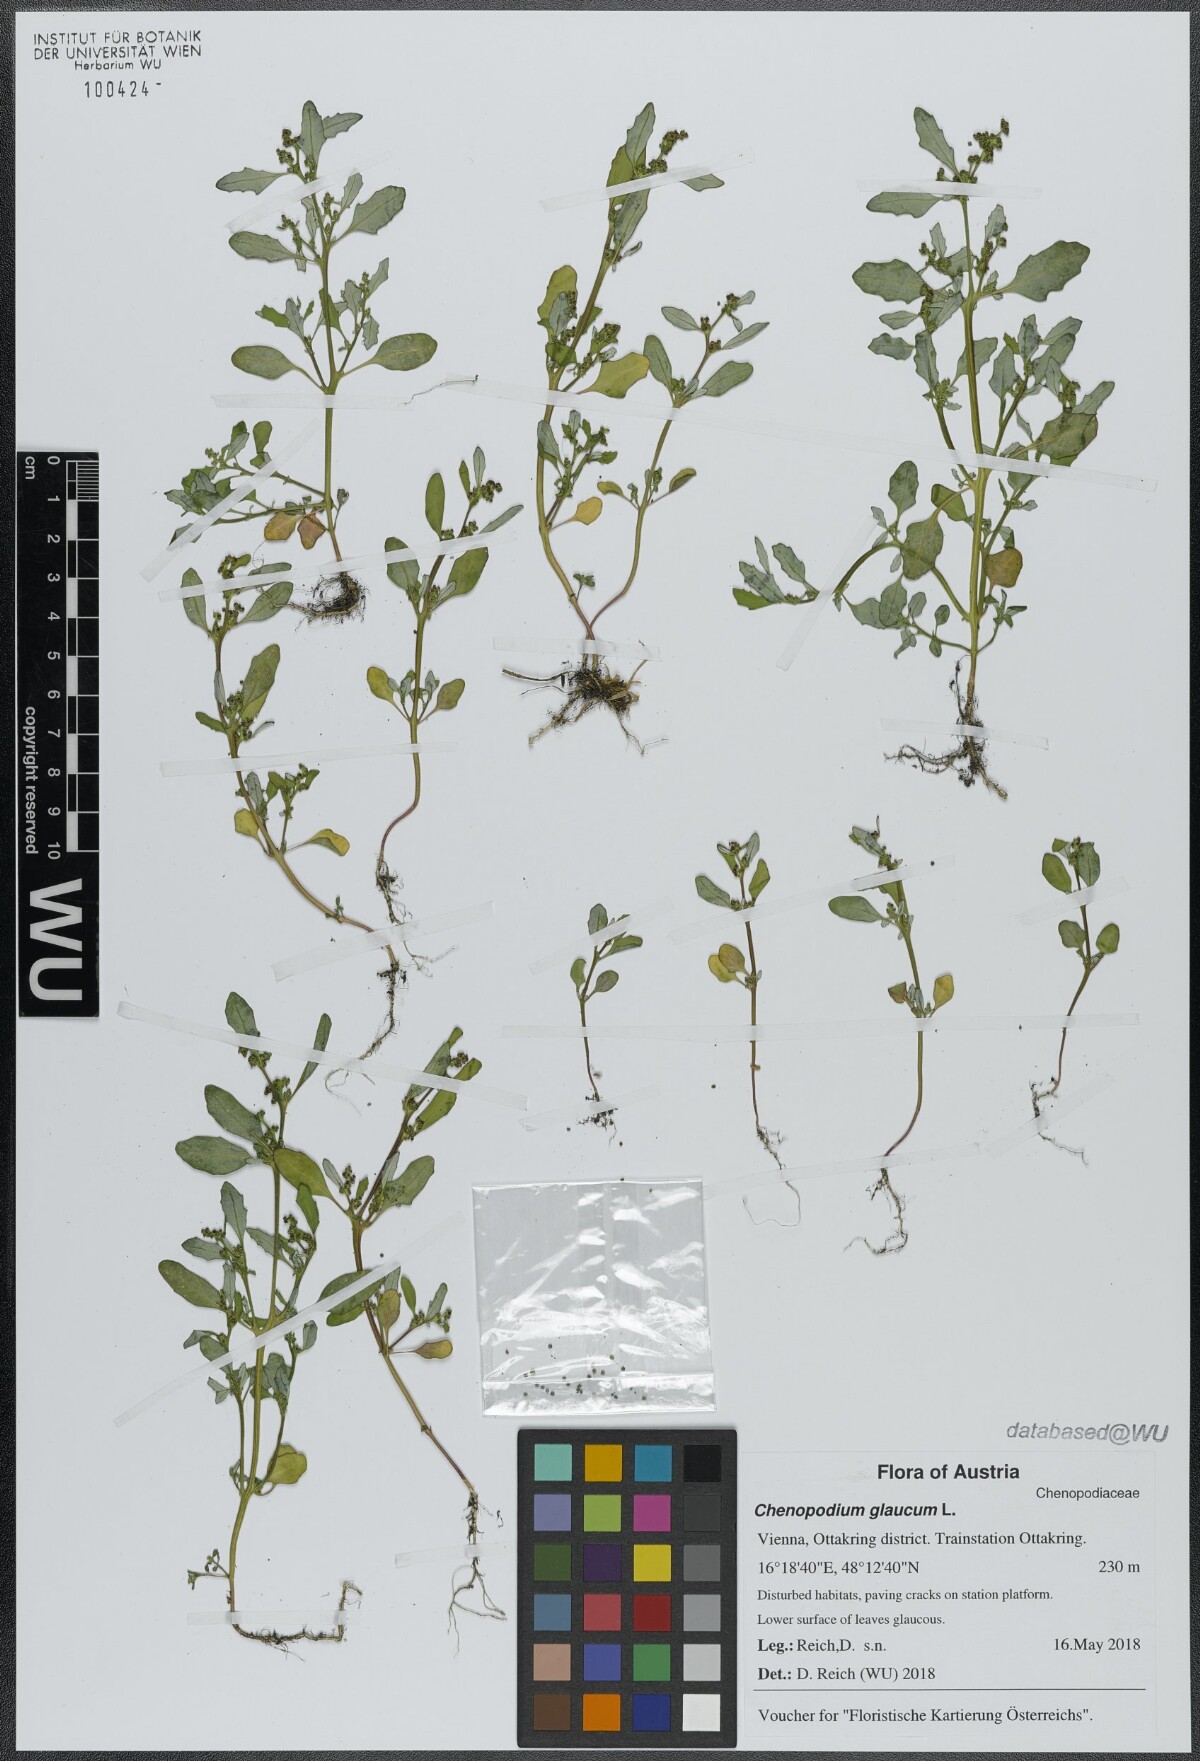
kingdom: Plantae
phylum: Tracheophyta
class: Magnoliopsida
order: Caryophyllales
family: Amaranthaceae
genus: Oxybasis
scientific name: Oxybasis glauca
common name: Glaucous goosefoot
